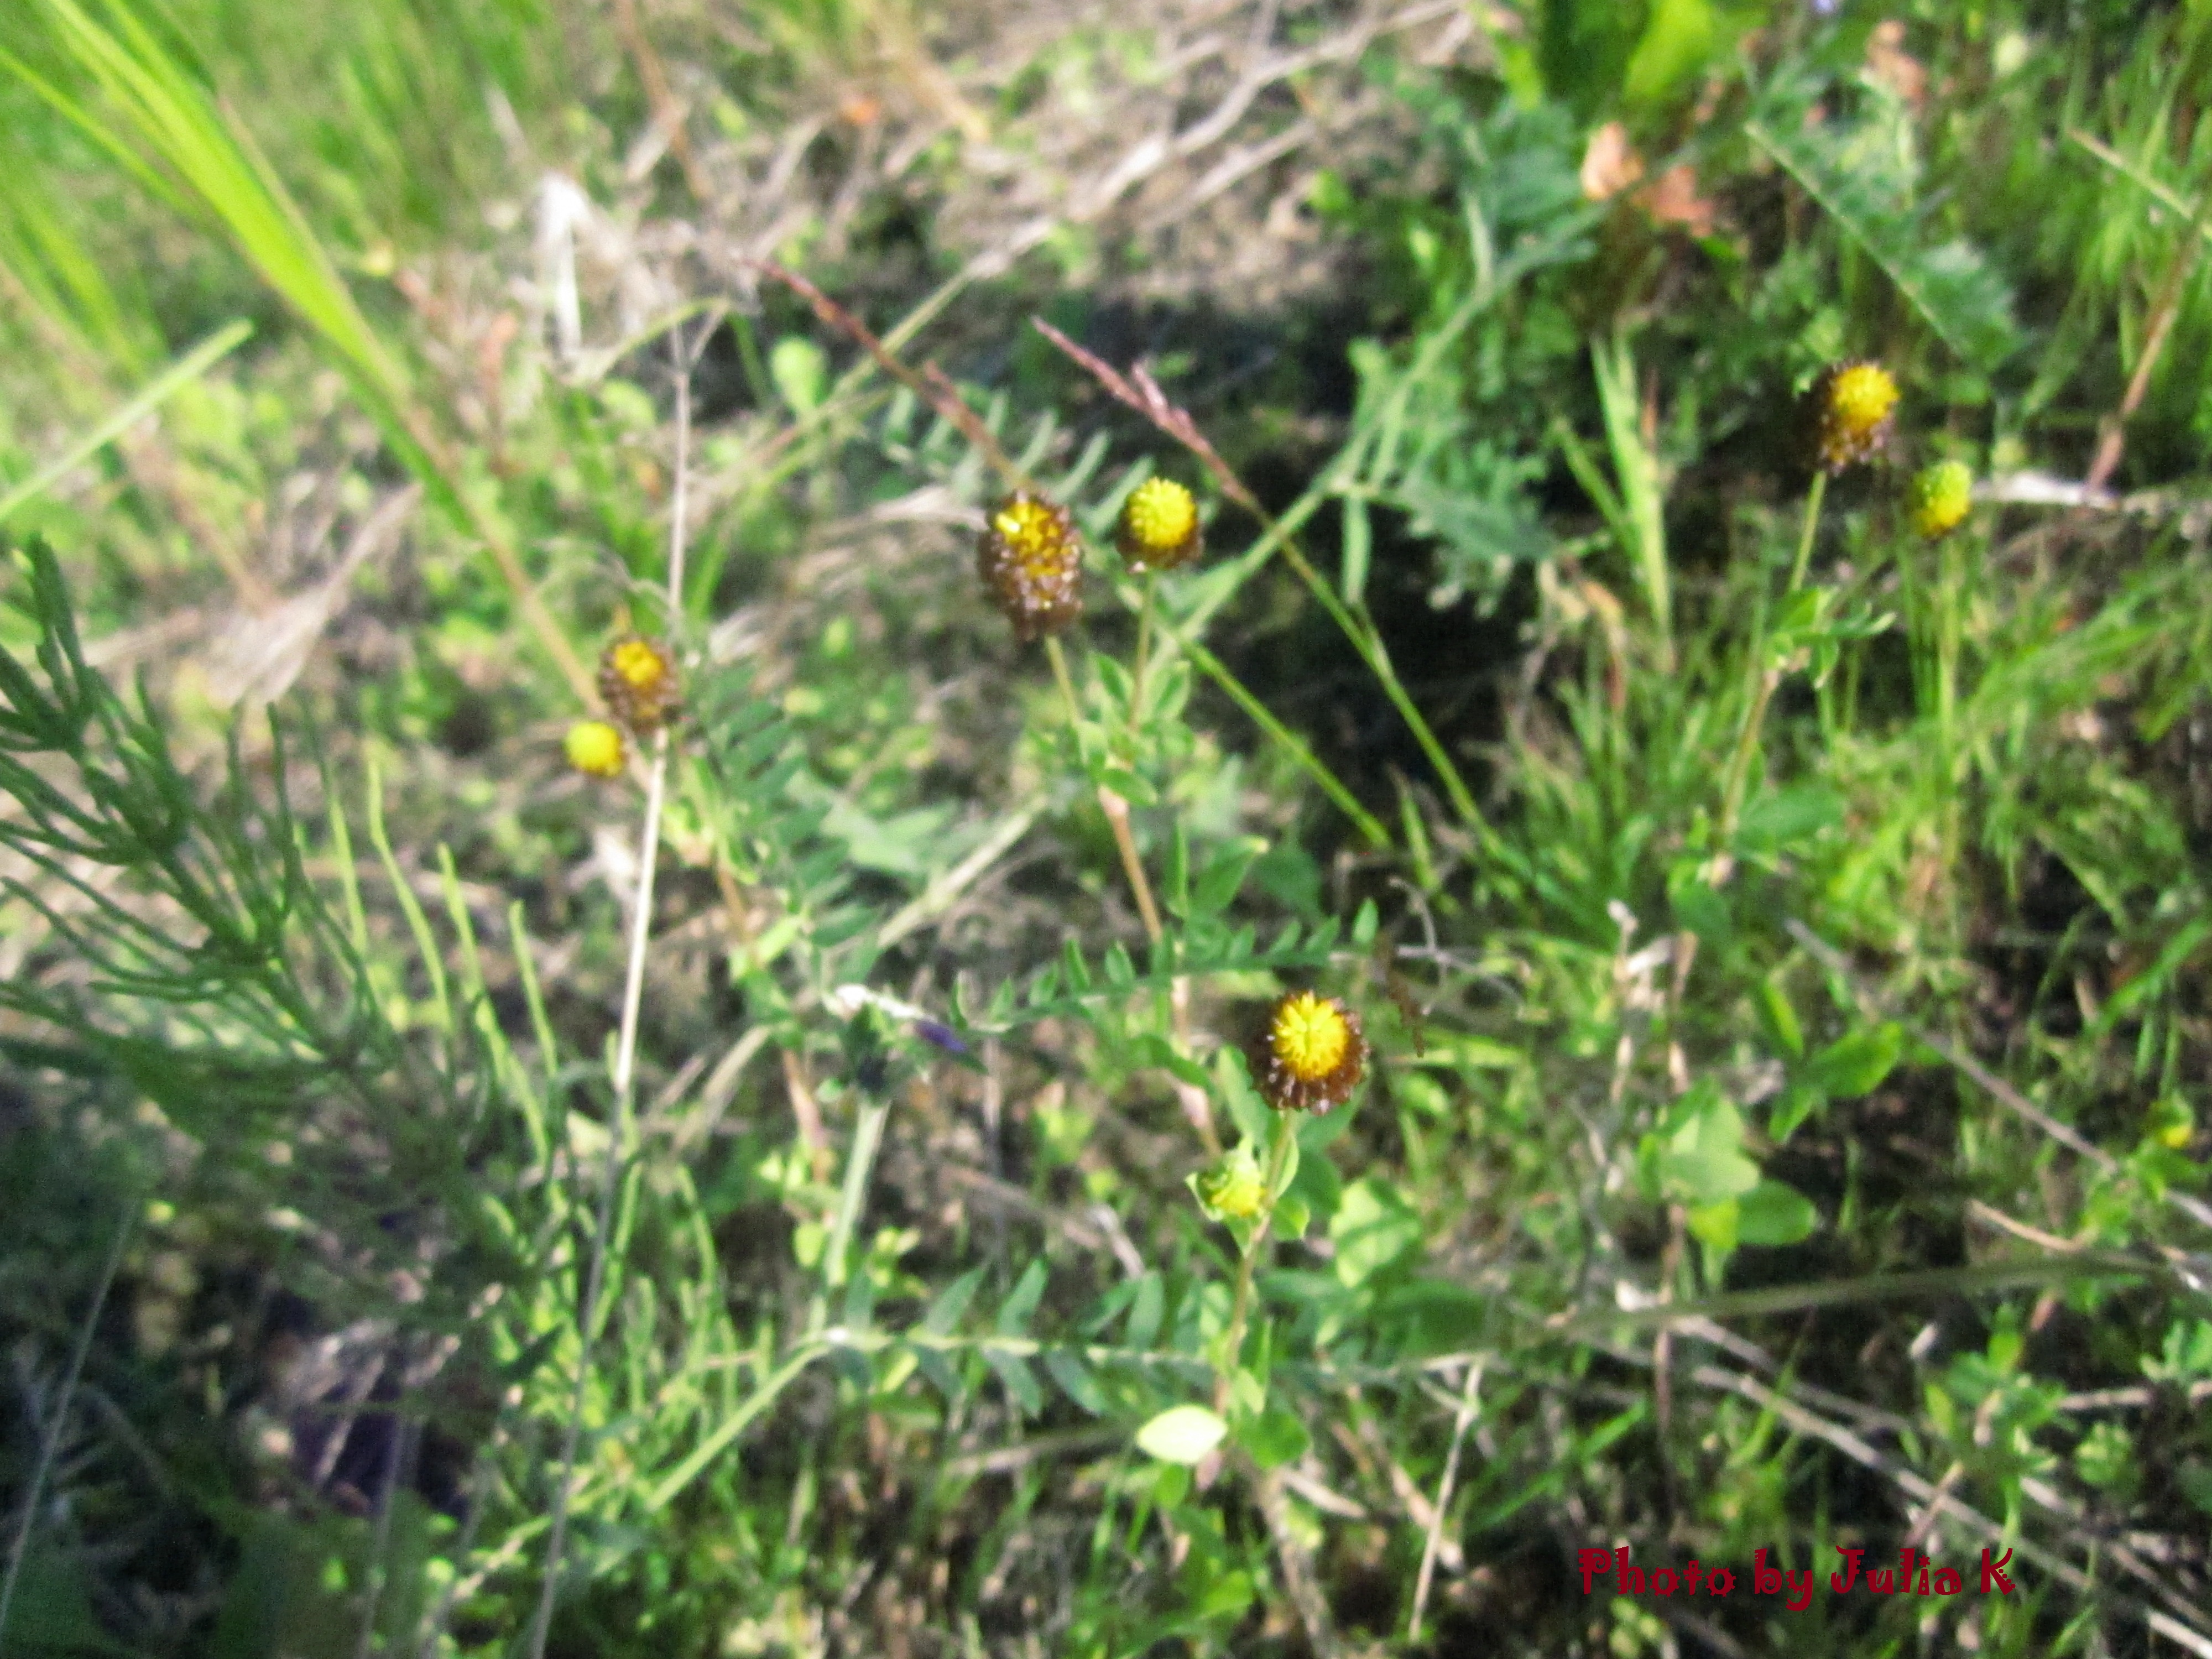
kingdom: Plantae
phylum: Tracheophyta
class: Magnoliopsida
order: Fabales
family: Fabaceae
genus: Trifolium
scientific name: Trifolium spadiceum
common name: Brown moor clover
